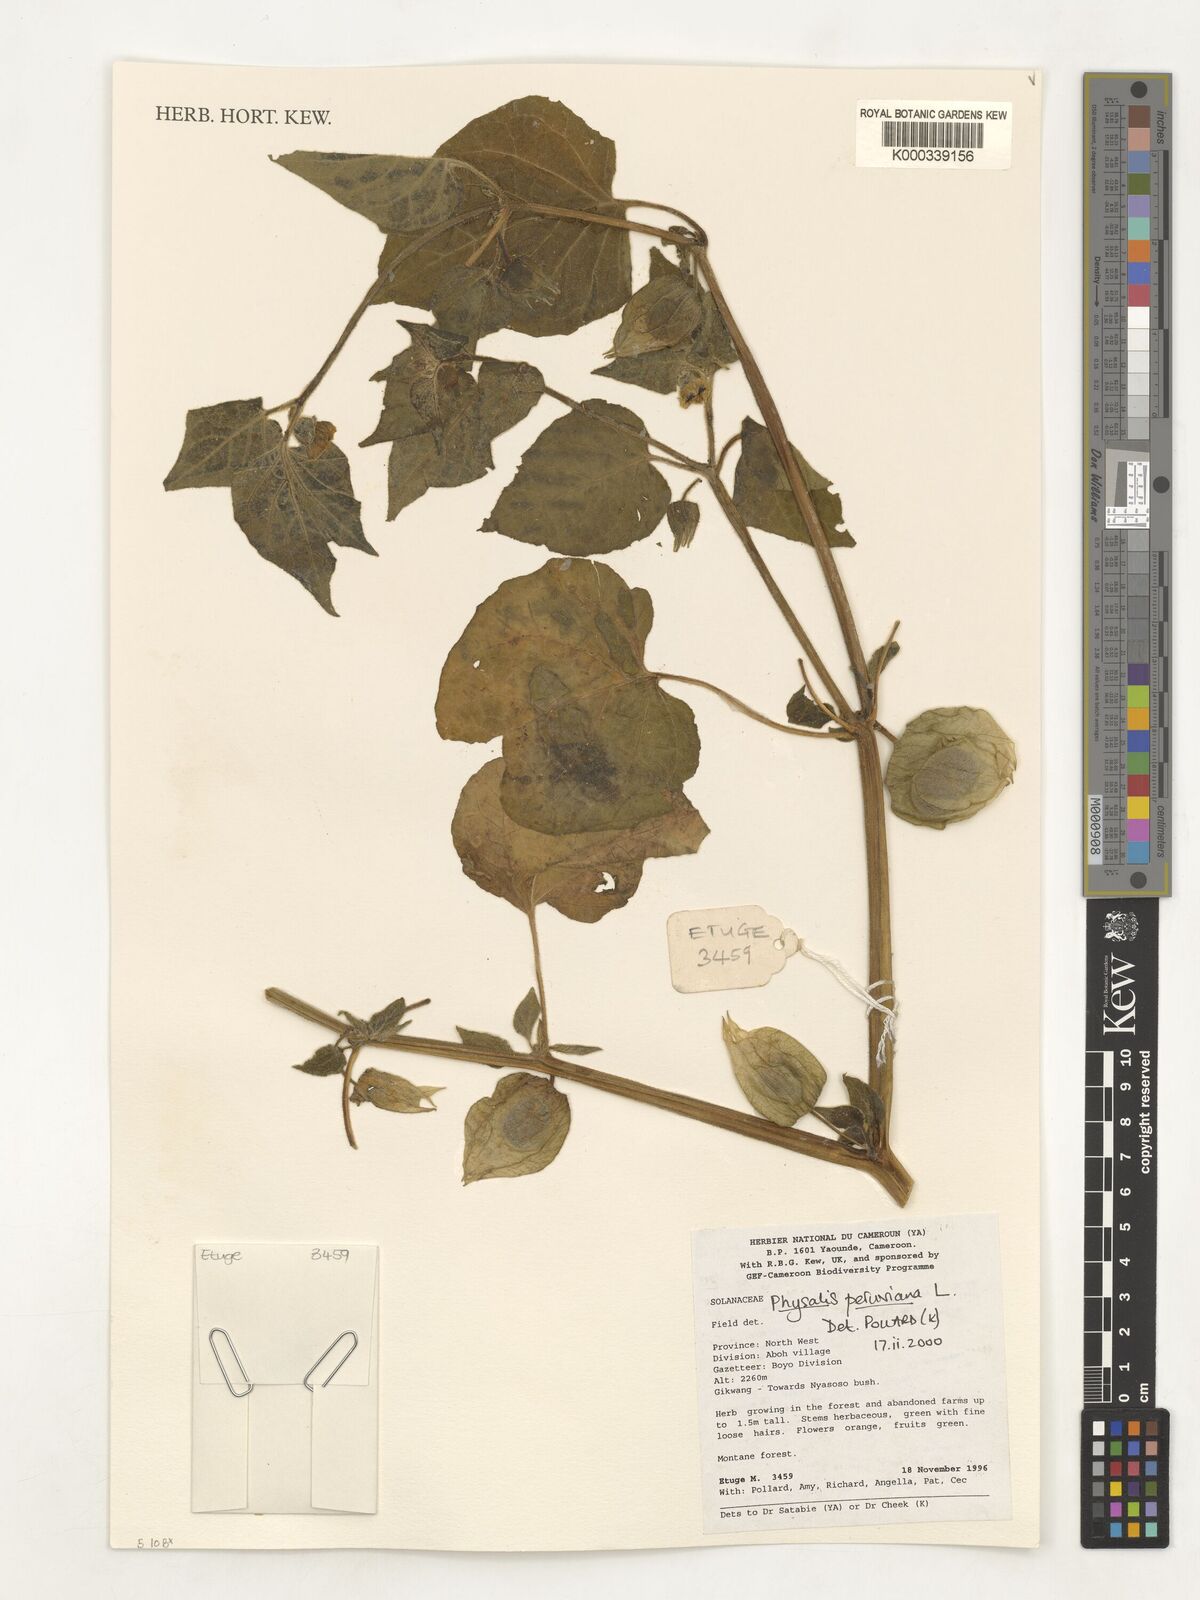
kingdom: Plantae
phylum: Tracheophyta
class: Magnoliopsida
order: Solanales
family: Solanaceae
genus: Physalis
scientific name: Physalis peruviana
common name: Cape-gooseberry
